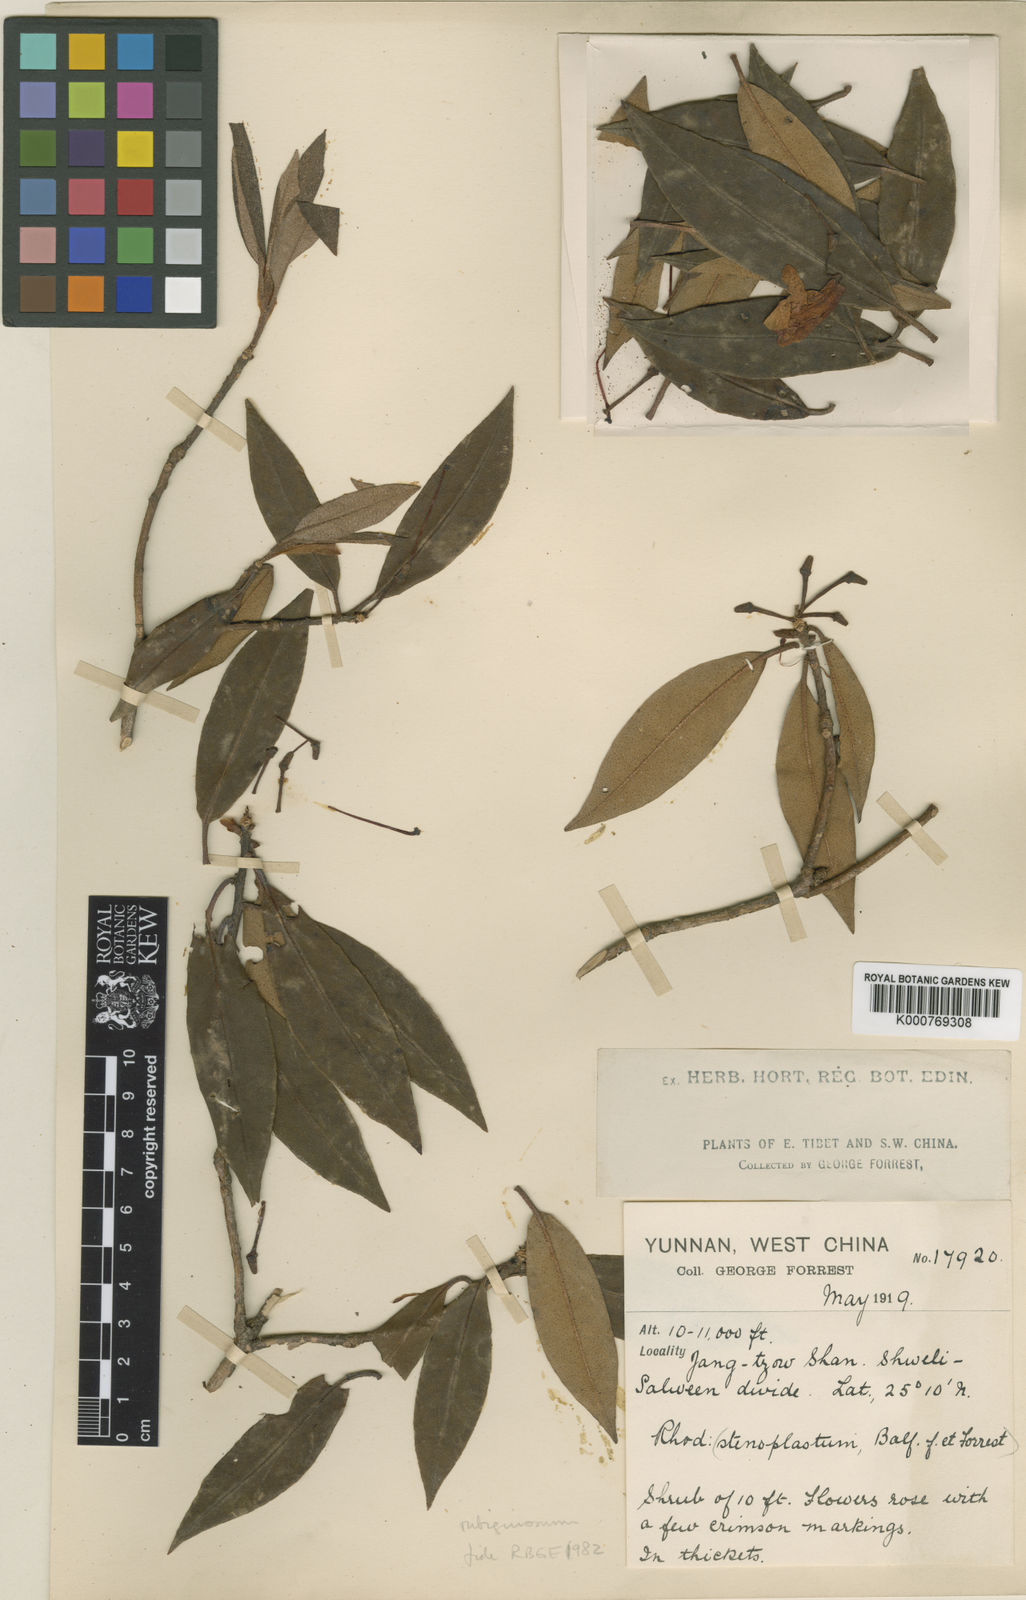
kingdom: Plantae
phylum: Tracheophyta
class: Magnoliopsida
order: Ericales
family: Ericaceae
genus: Rhododendron
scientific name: Rhododendron rubiginosum
